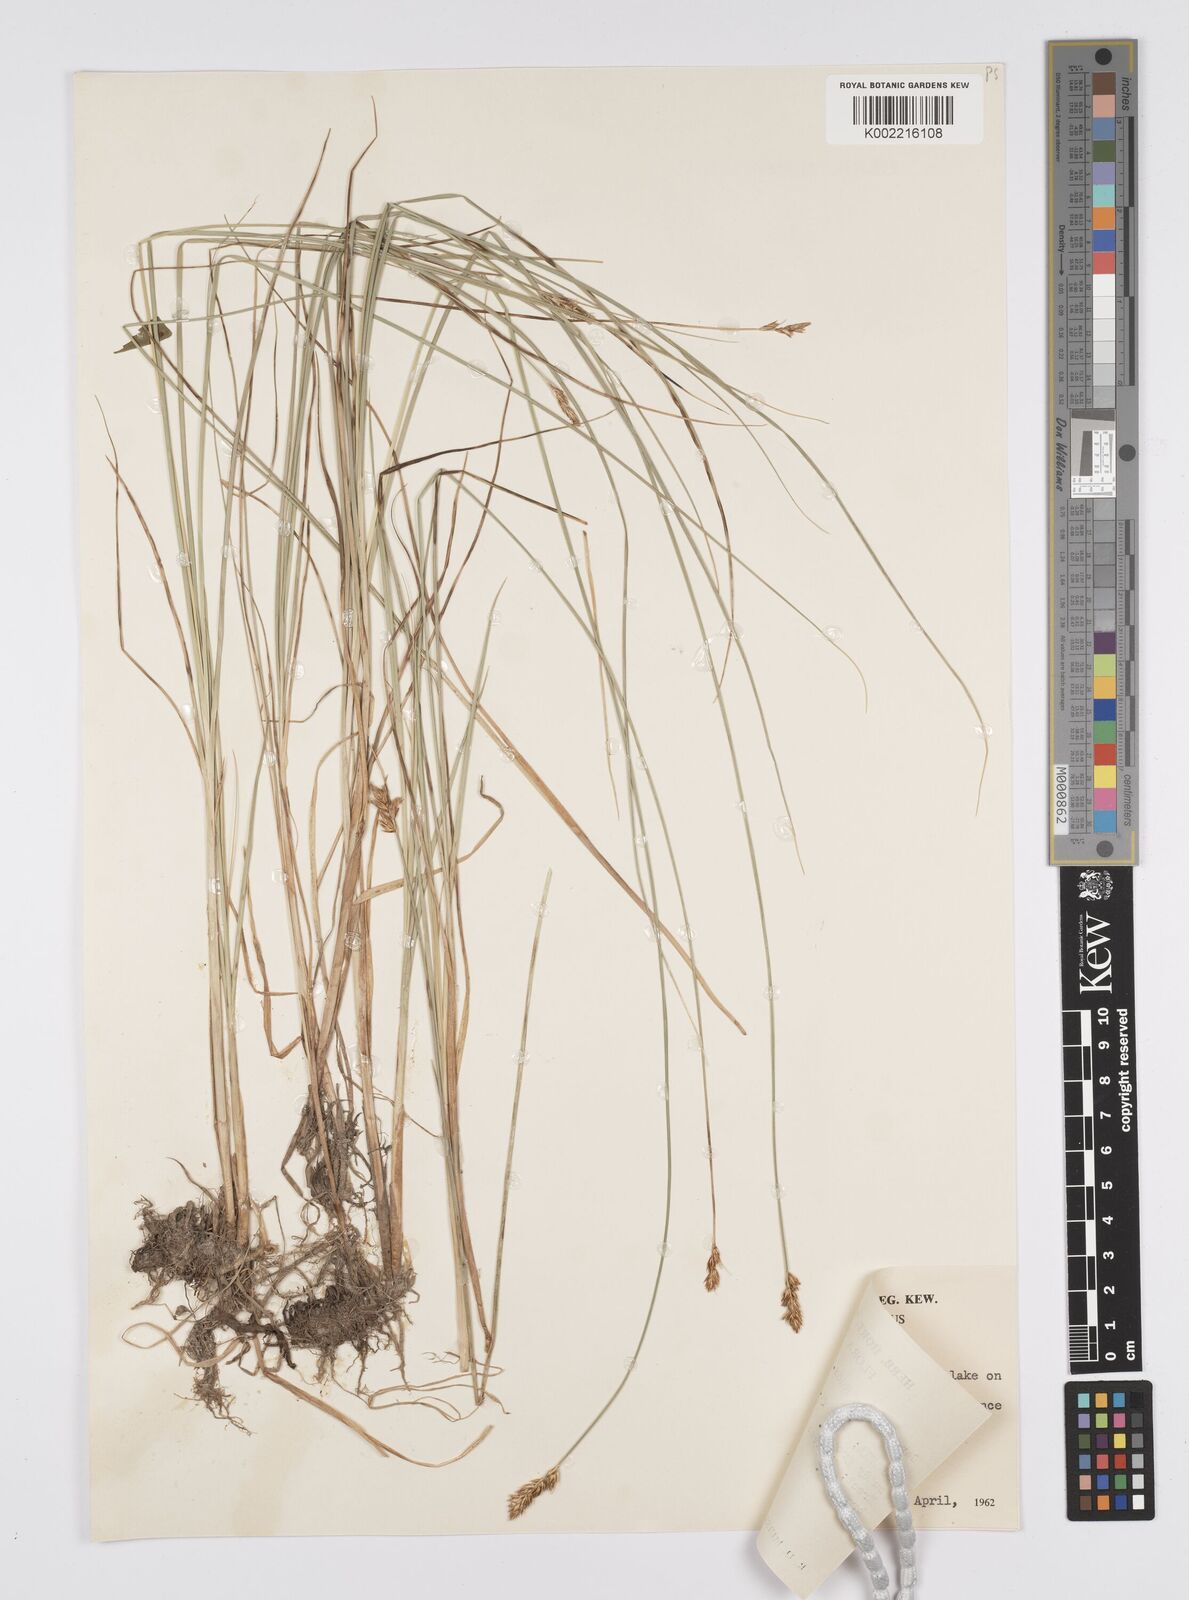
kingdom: Plantae
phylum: Tracheophyta
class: Liliopsida
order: Poales
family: Cyperaceae
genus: Carex
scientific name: Carex divisa
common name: Divided sedge
